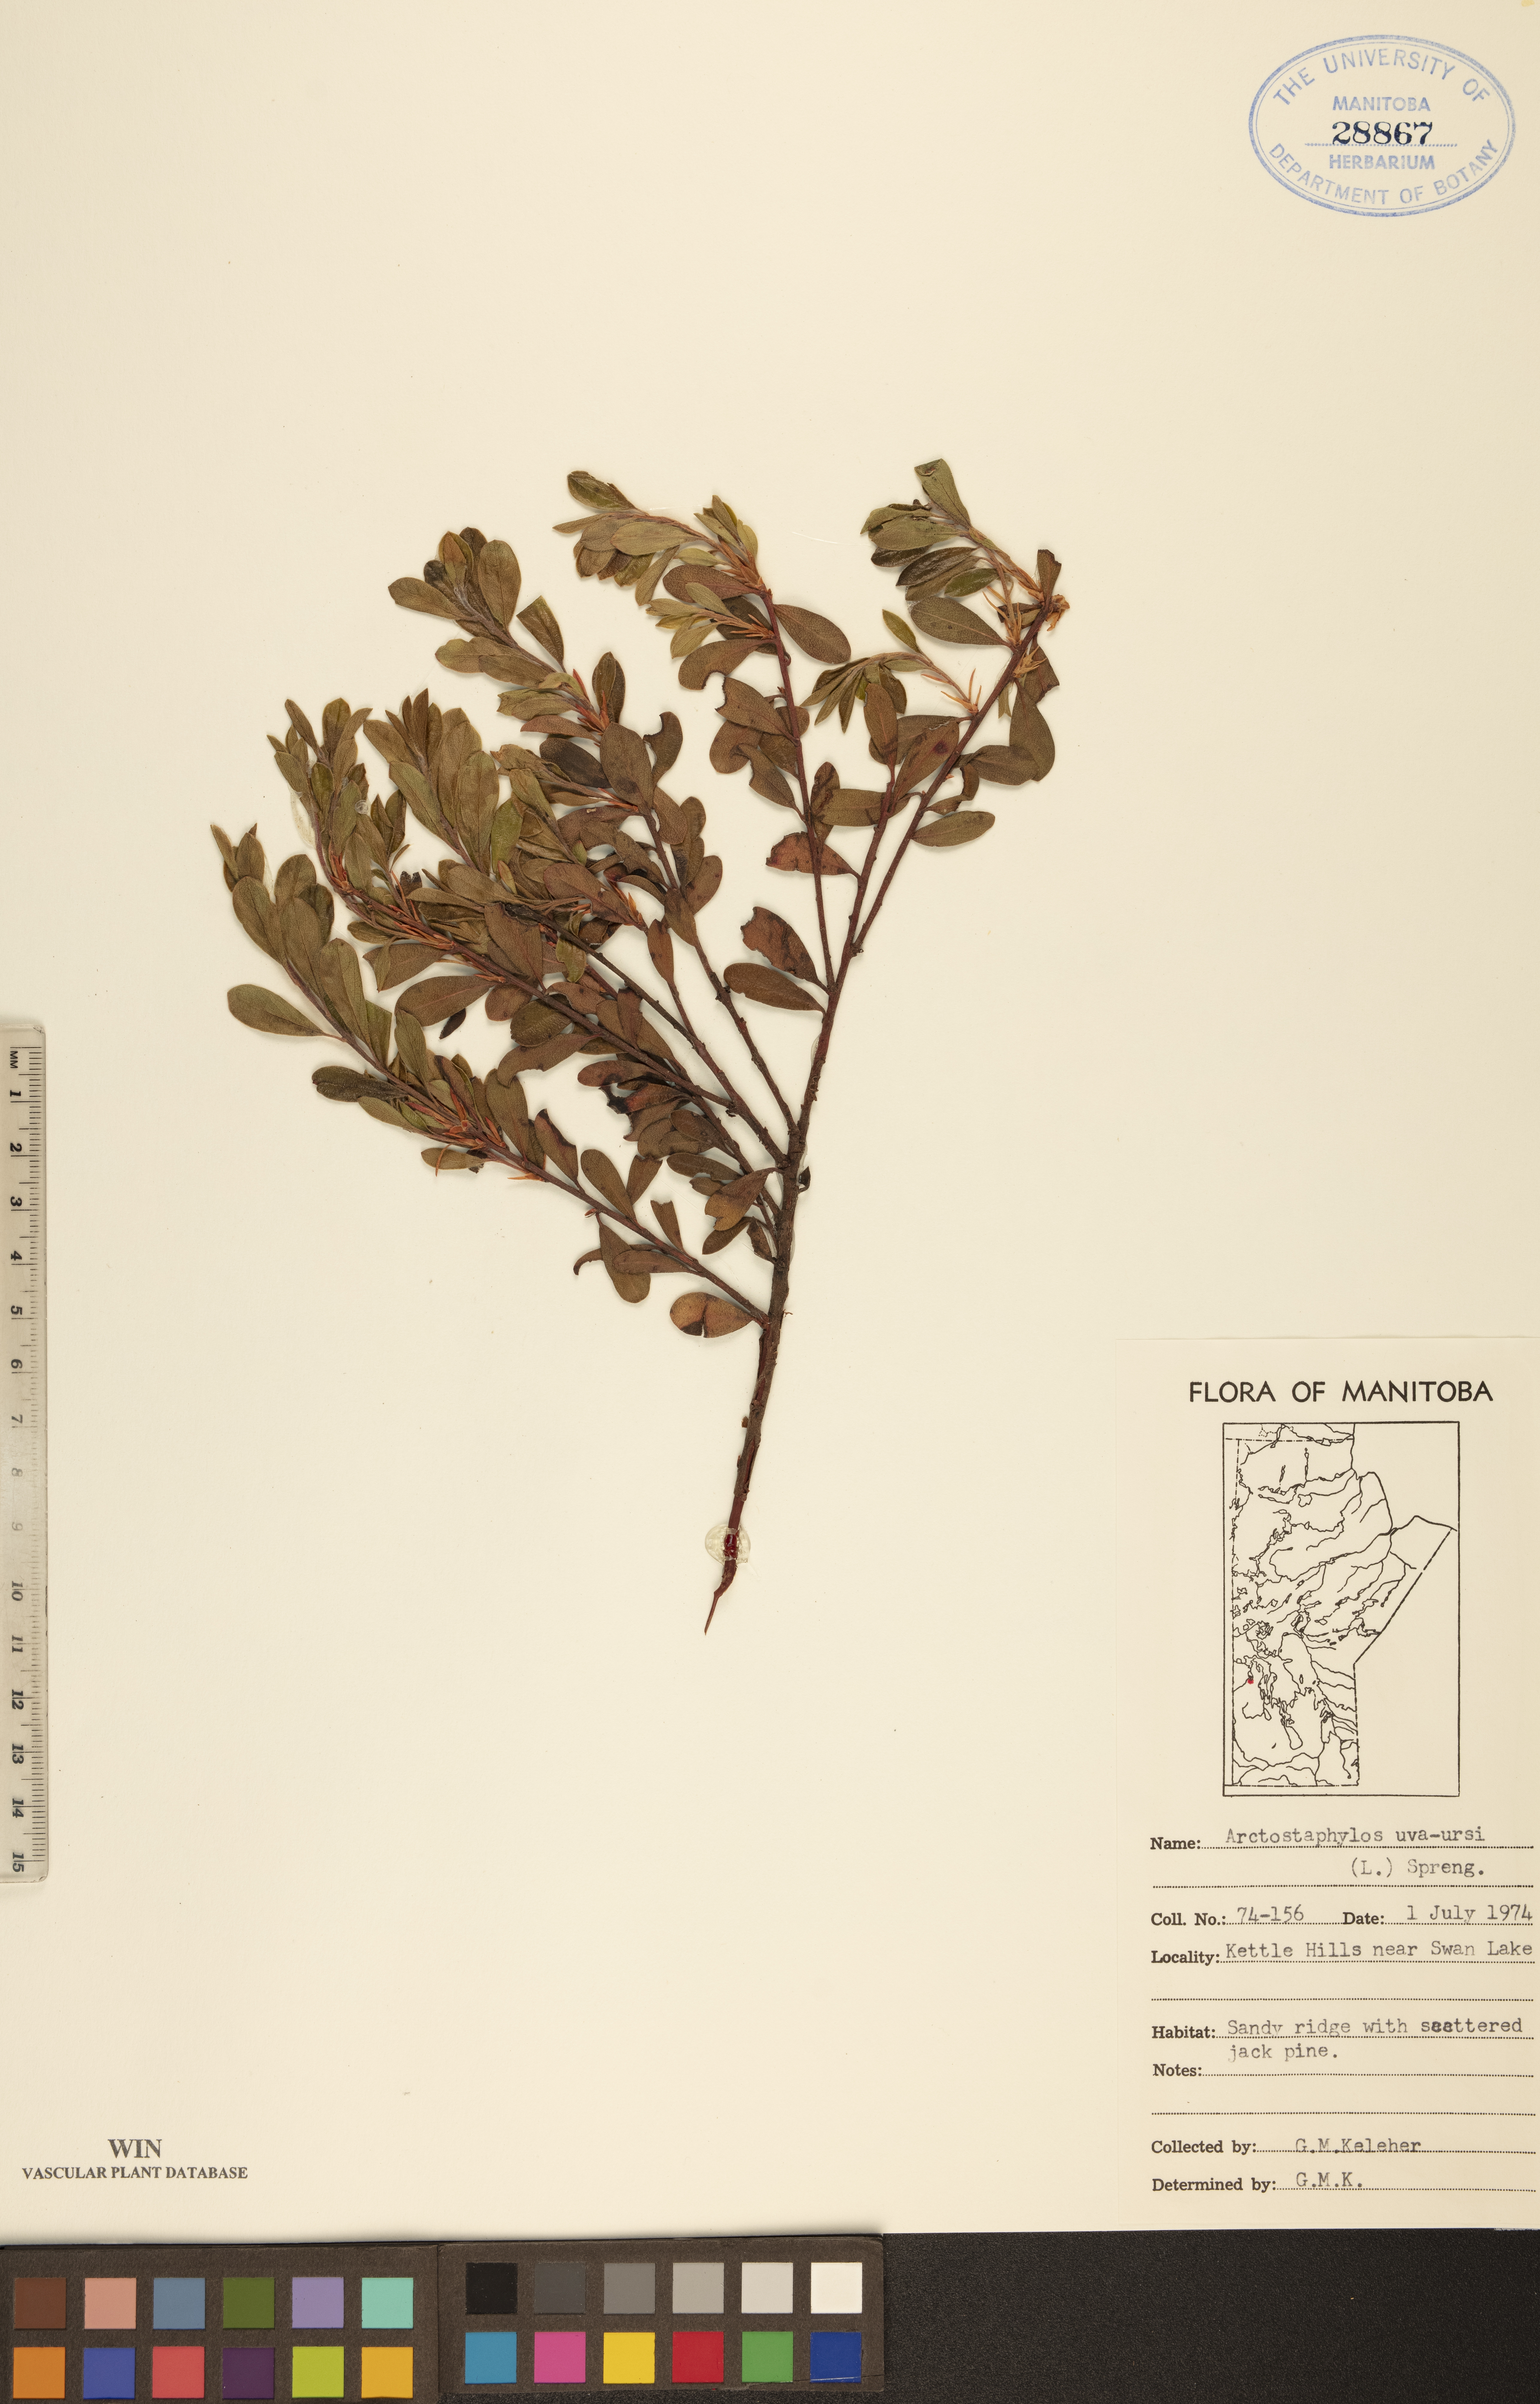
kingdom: Plantae
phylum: Tracheophyta
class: Magnoliopsida
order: Ericales
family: Ericaceae
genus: Arctostaphylos
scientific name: Arctostaphylos uva-ursi
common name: Bearberry
